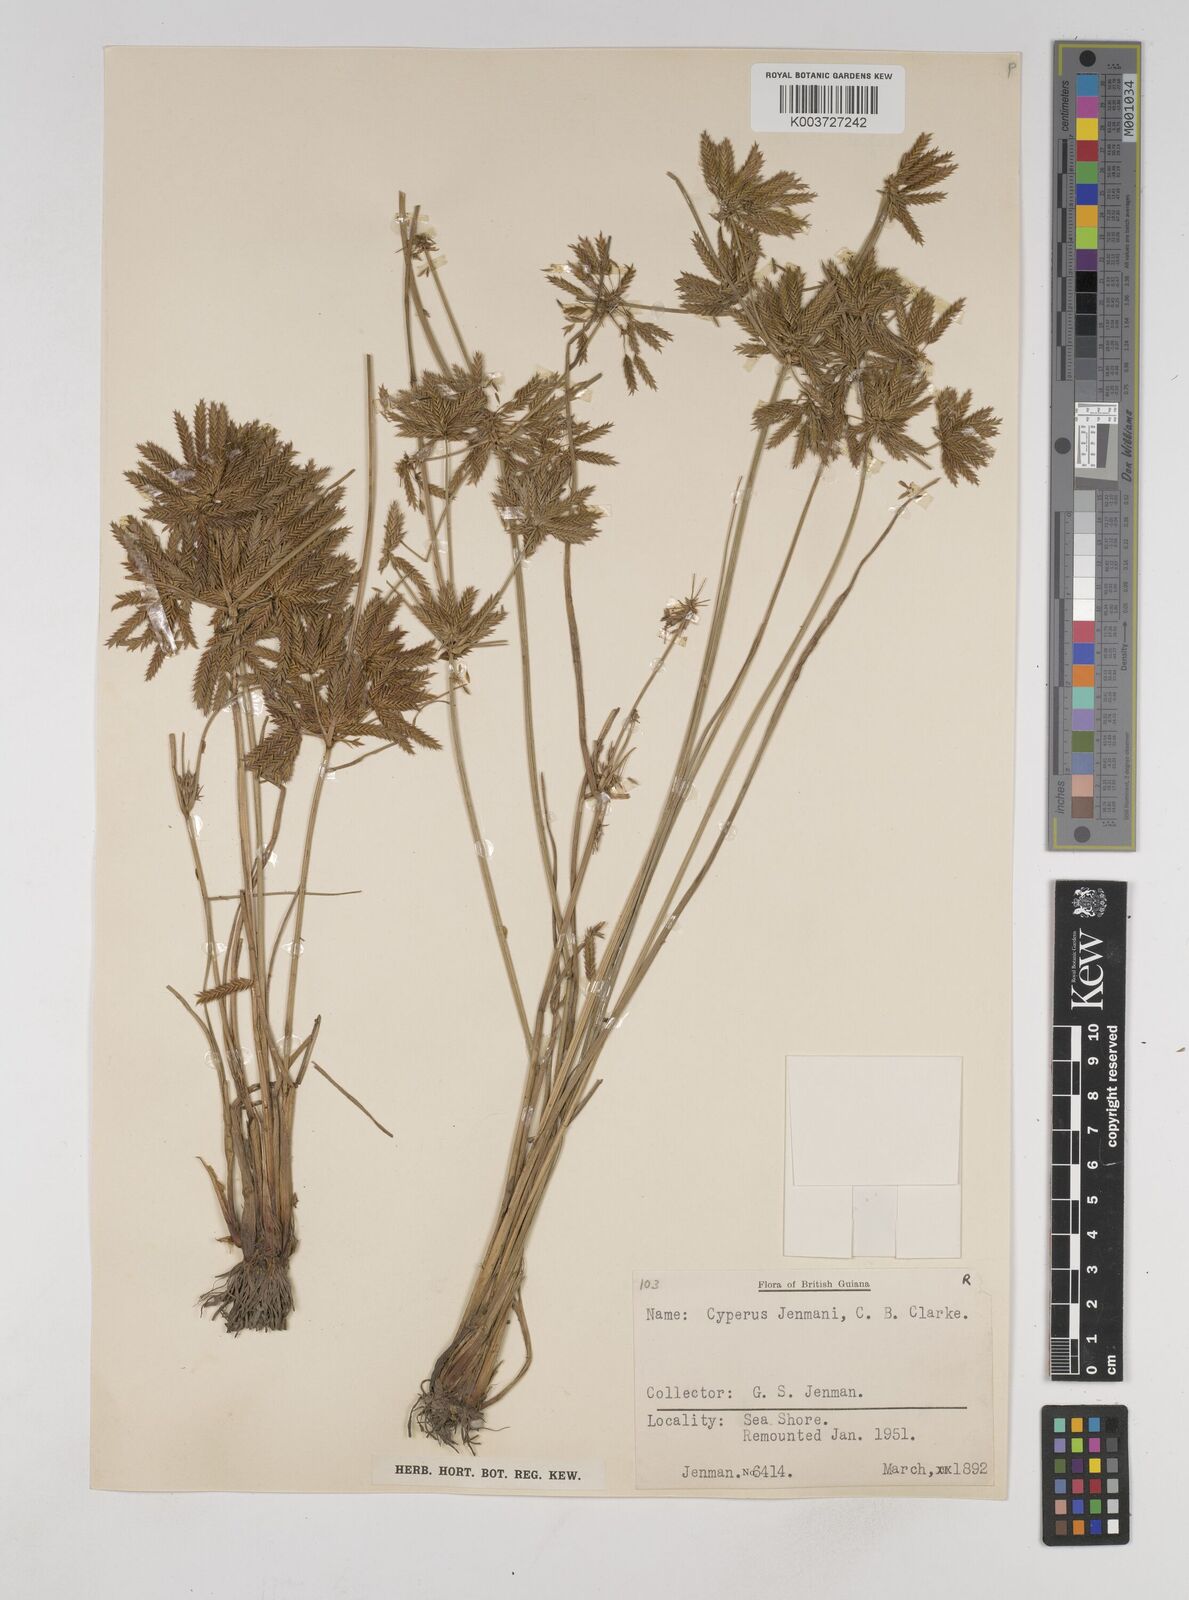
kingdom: Plantae
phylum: Tracheophyta
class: Liliopsida
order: Poales
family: Cyperaceae
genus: Cyperus
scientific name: Cyperus elegans
